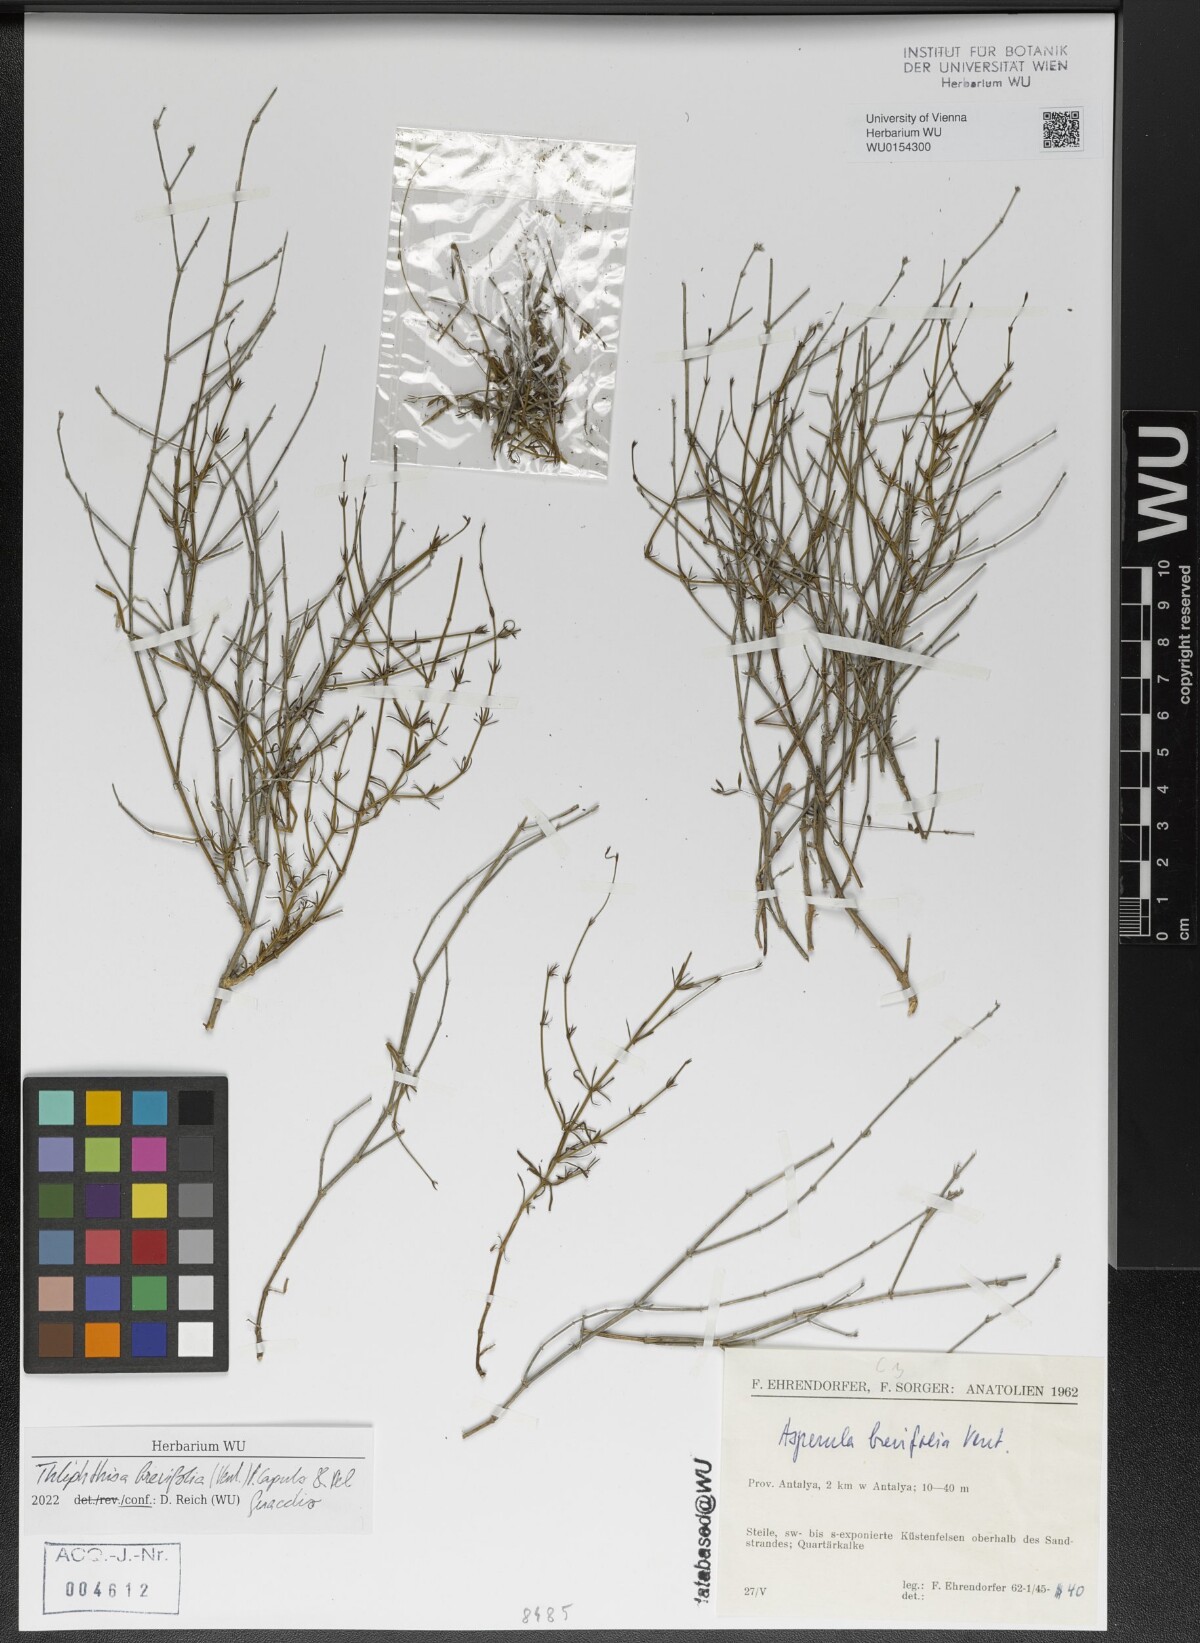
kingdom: Plantae
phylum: Tracheophyta
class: Magnoliopsida
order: Gentianales
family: Rubiaceae
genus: Thliphthisa
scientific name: Thliphthisa brevifolia
